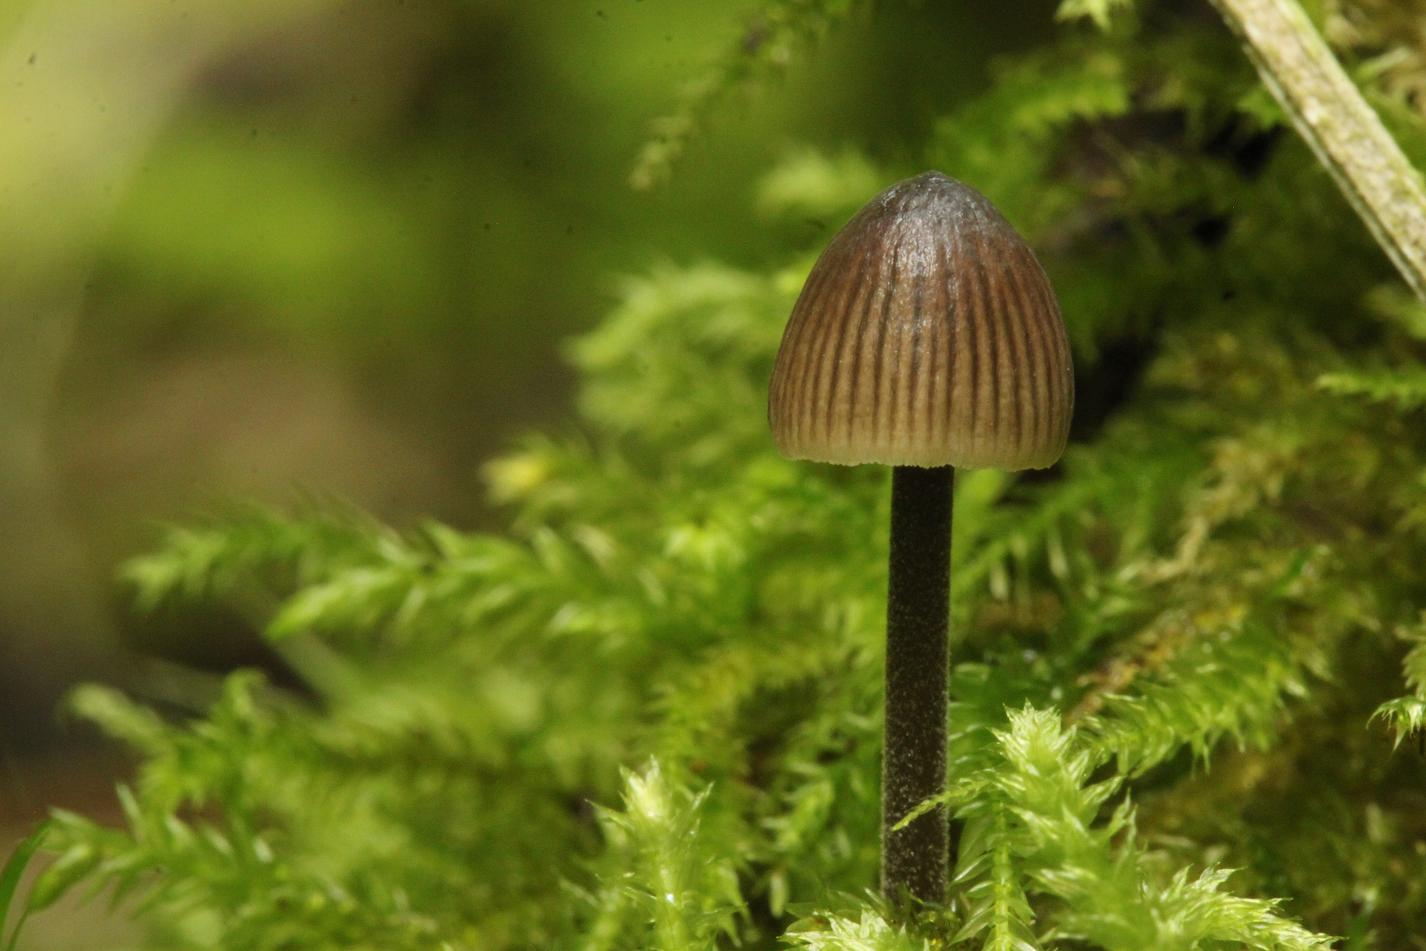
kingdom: Fungi
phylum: Basidiomycota
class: Agaricomycetes
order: Agaricales
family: Mycenaceae
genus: Mycena
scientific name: Mycena leptocephala
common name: klor-huesvamp
